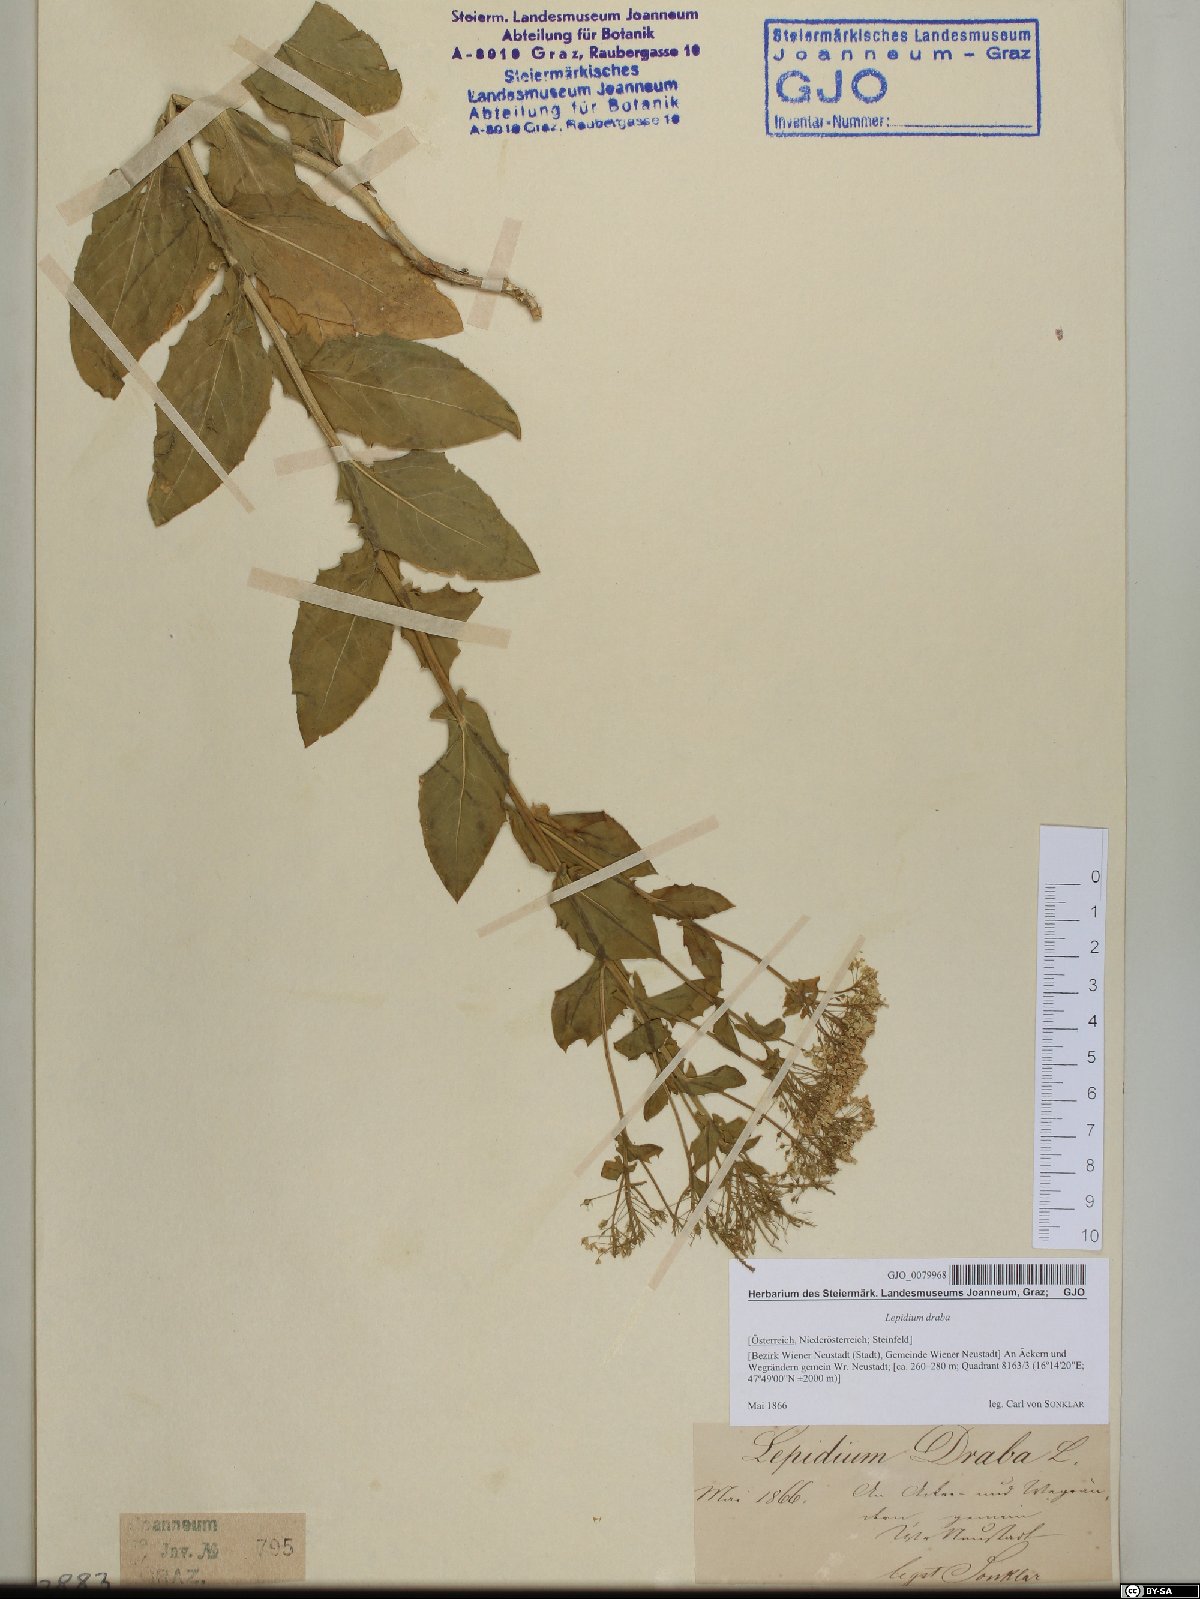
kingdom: Plantae
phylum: Tracheophyta
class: Magnoliopsida
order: Brassicales
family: Brassicaceae
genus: Lepidium
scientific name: Lepidium draba
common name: Hoary cress
